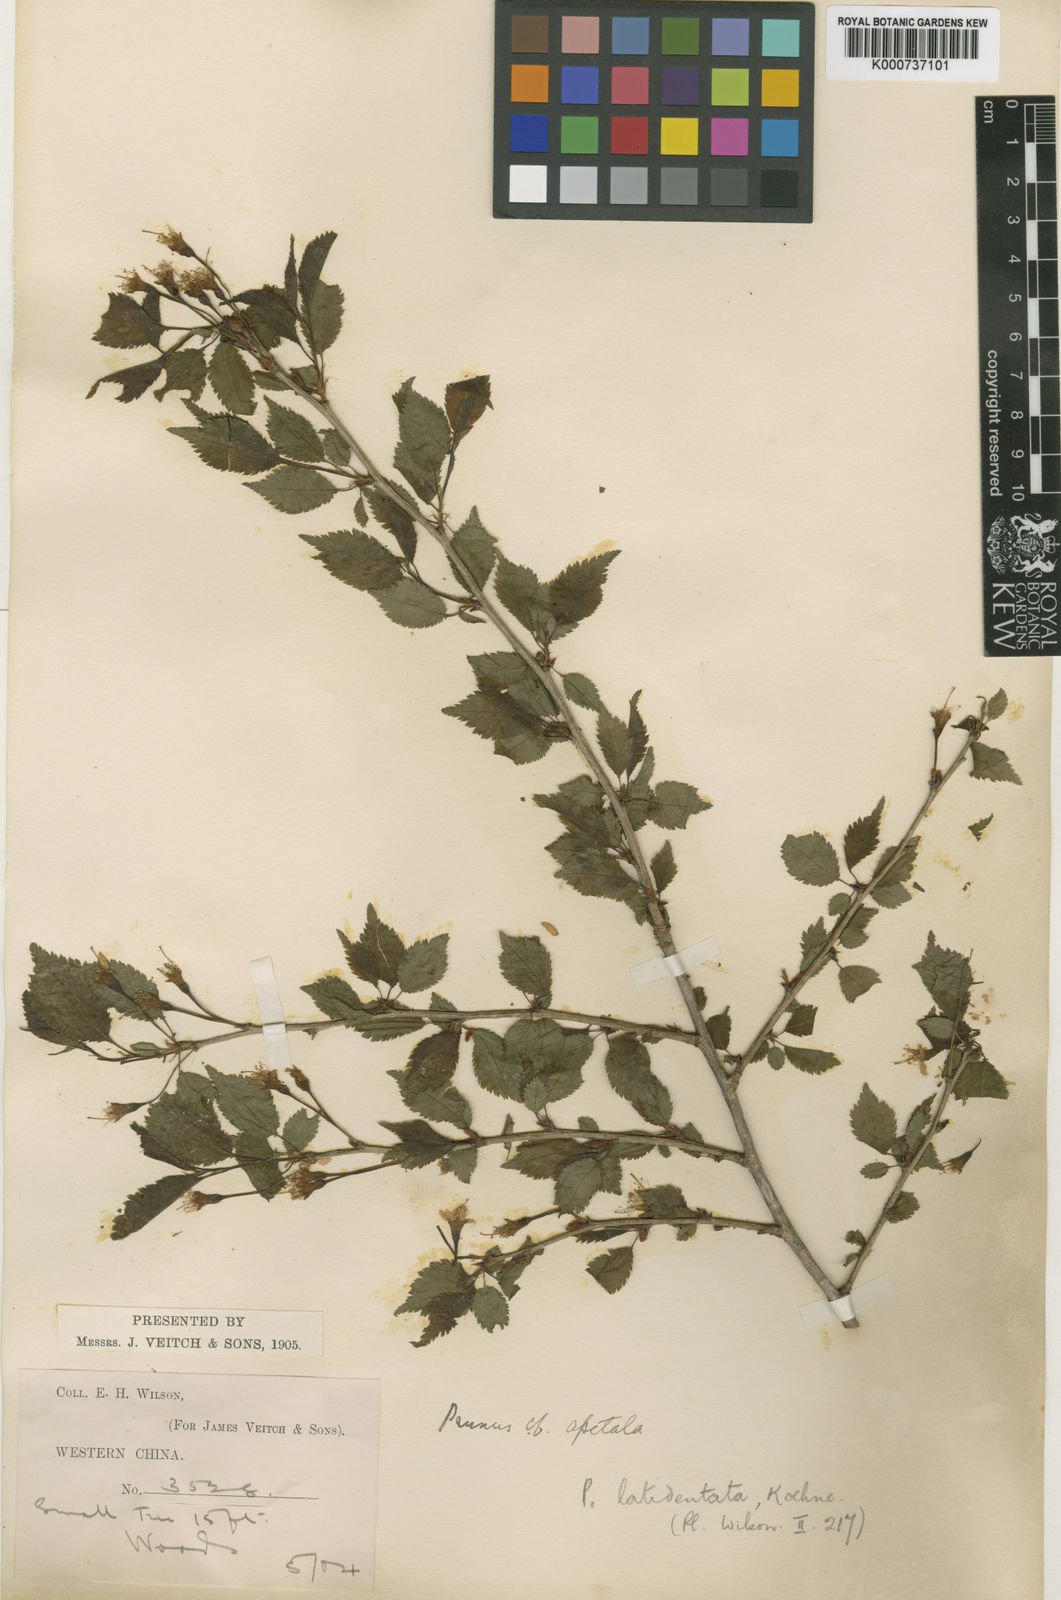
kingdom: Plantae
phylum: Tracheophyta
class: Magnoliopsida
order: Rosales
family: Rosaceae
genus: Prunus
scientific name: Prunus trichostoma
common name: Ribbed cherry
